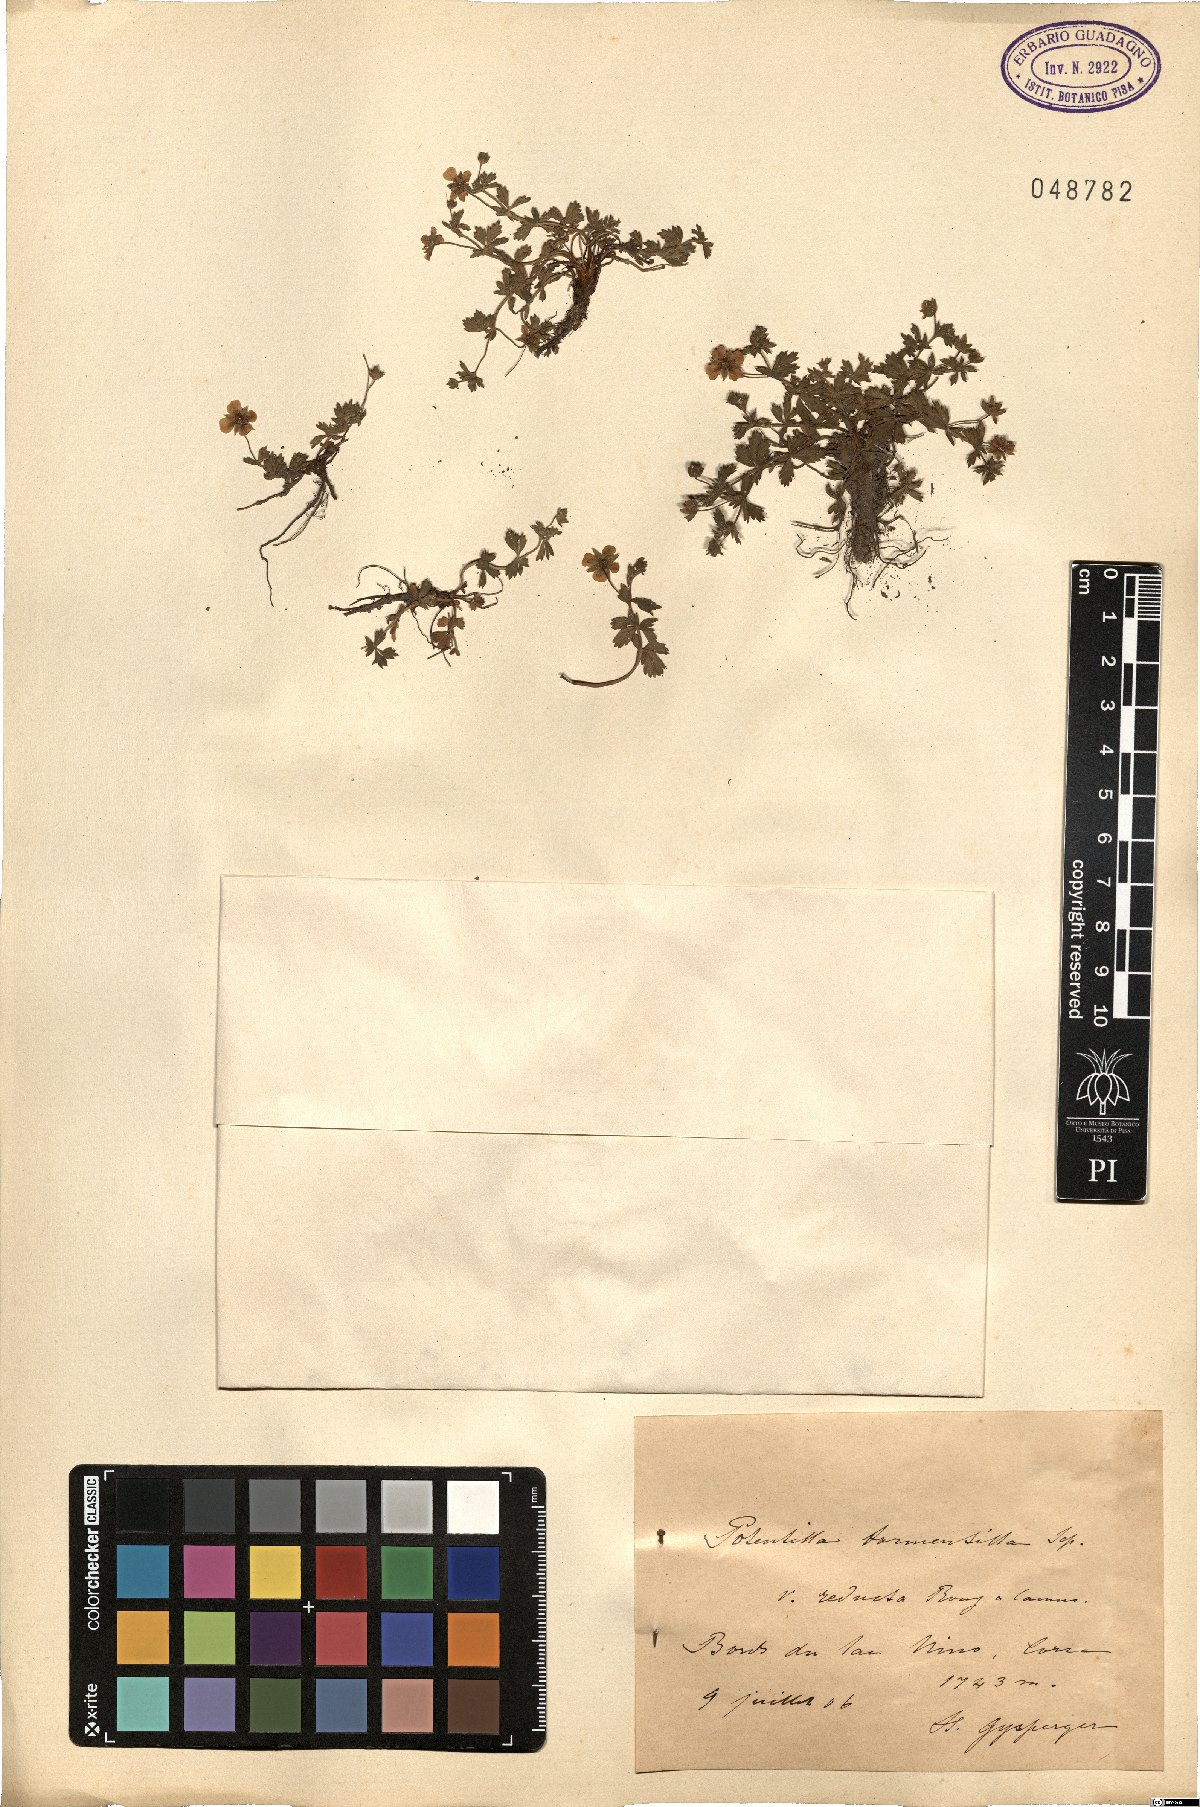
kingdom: Plantae
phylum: Tracheophyta
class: Magnoliopsida
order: Rosales
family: Rosaceae
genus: Potentilla
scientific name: Potentilla erecta
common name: Tormentil
